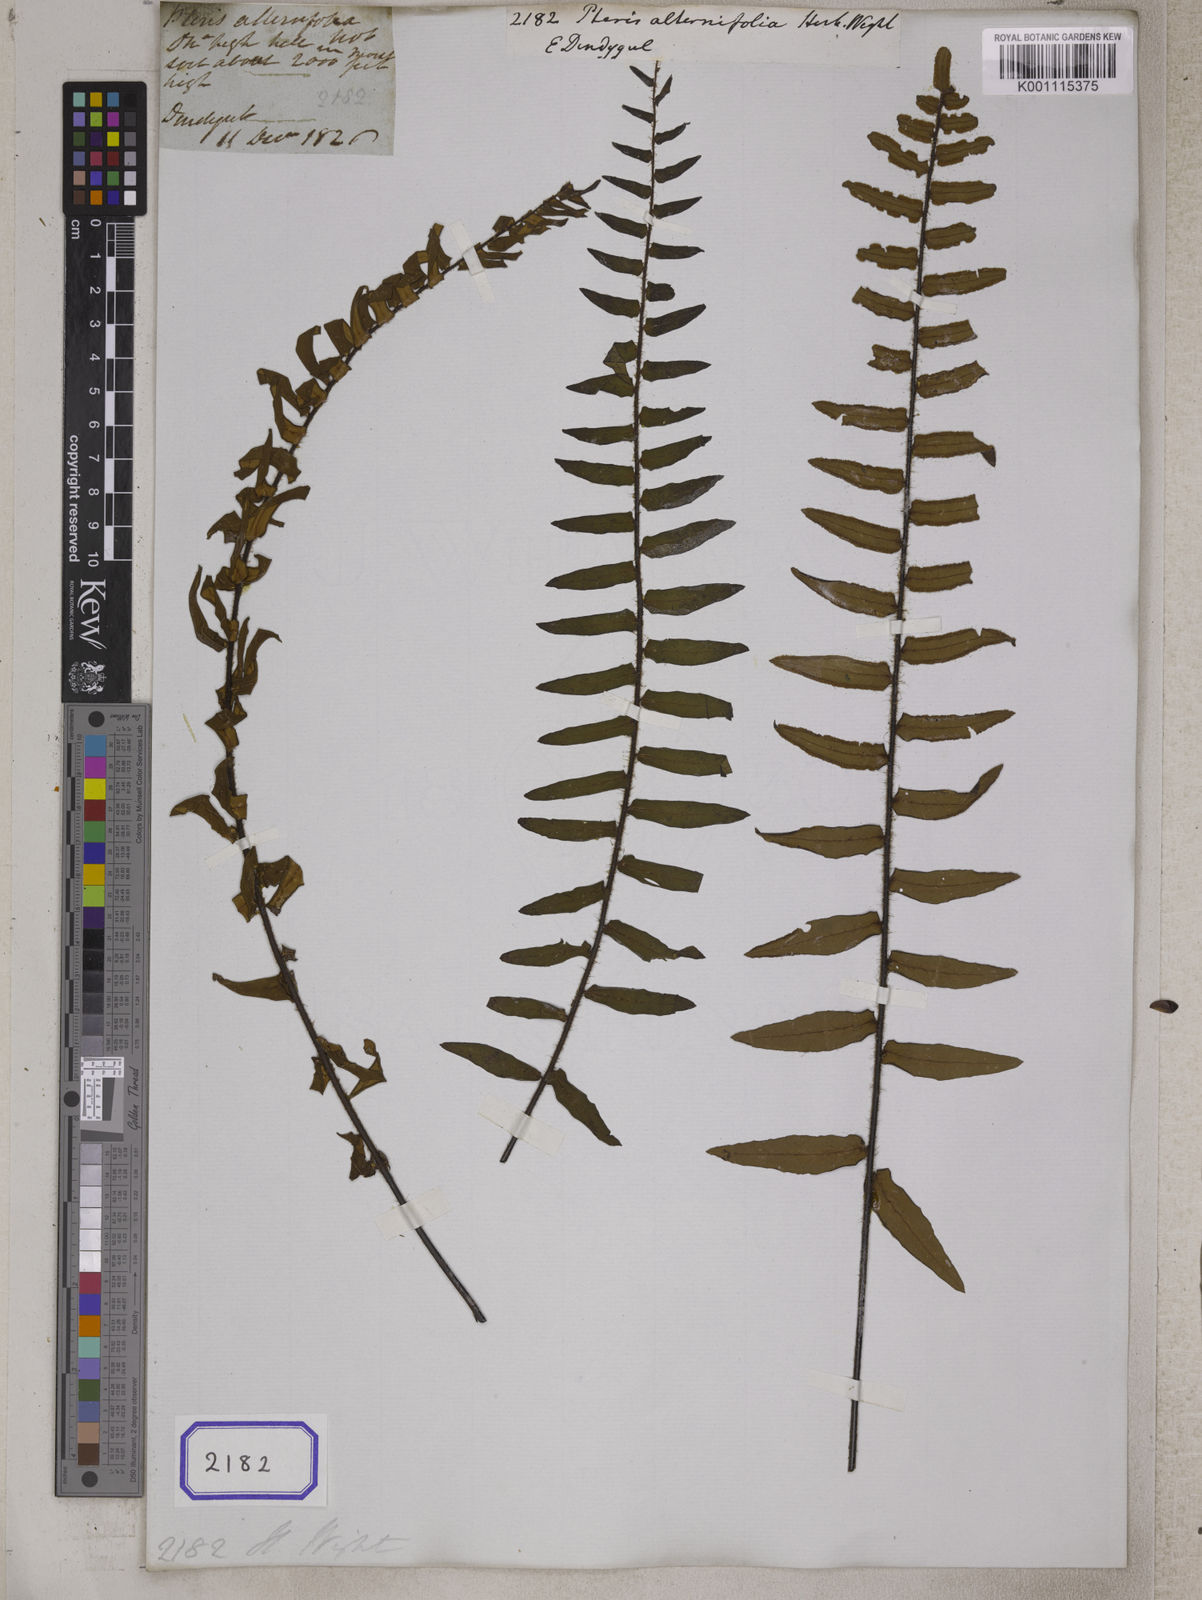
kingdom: Plantae
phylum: Tracheophyta
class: Polypodiopsida
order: Polypodiales
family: Pteridaceae
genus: Pellaea
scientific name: Pellaea falcata
